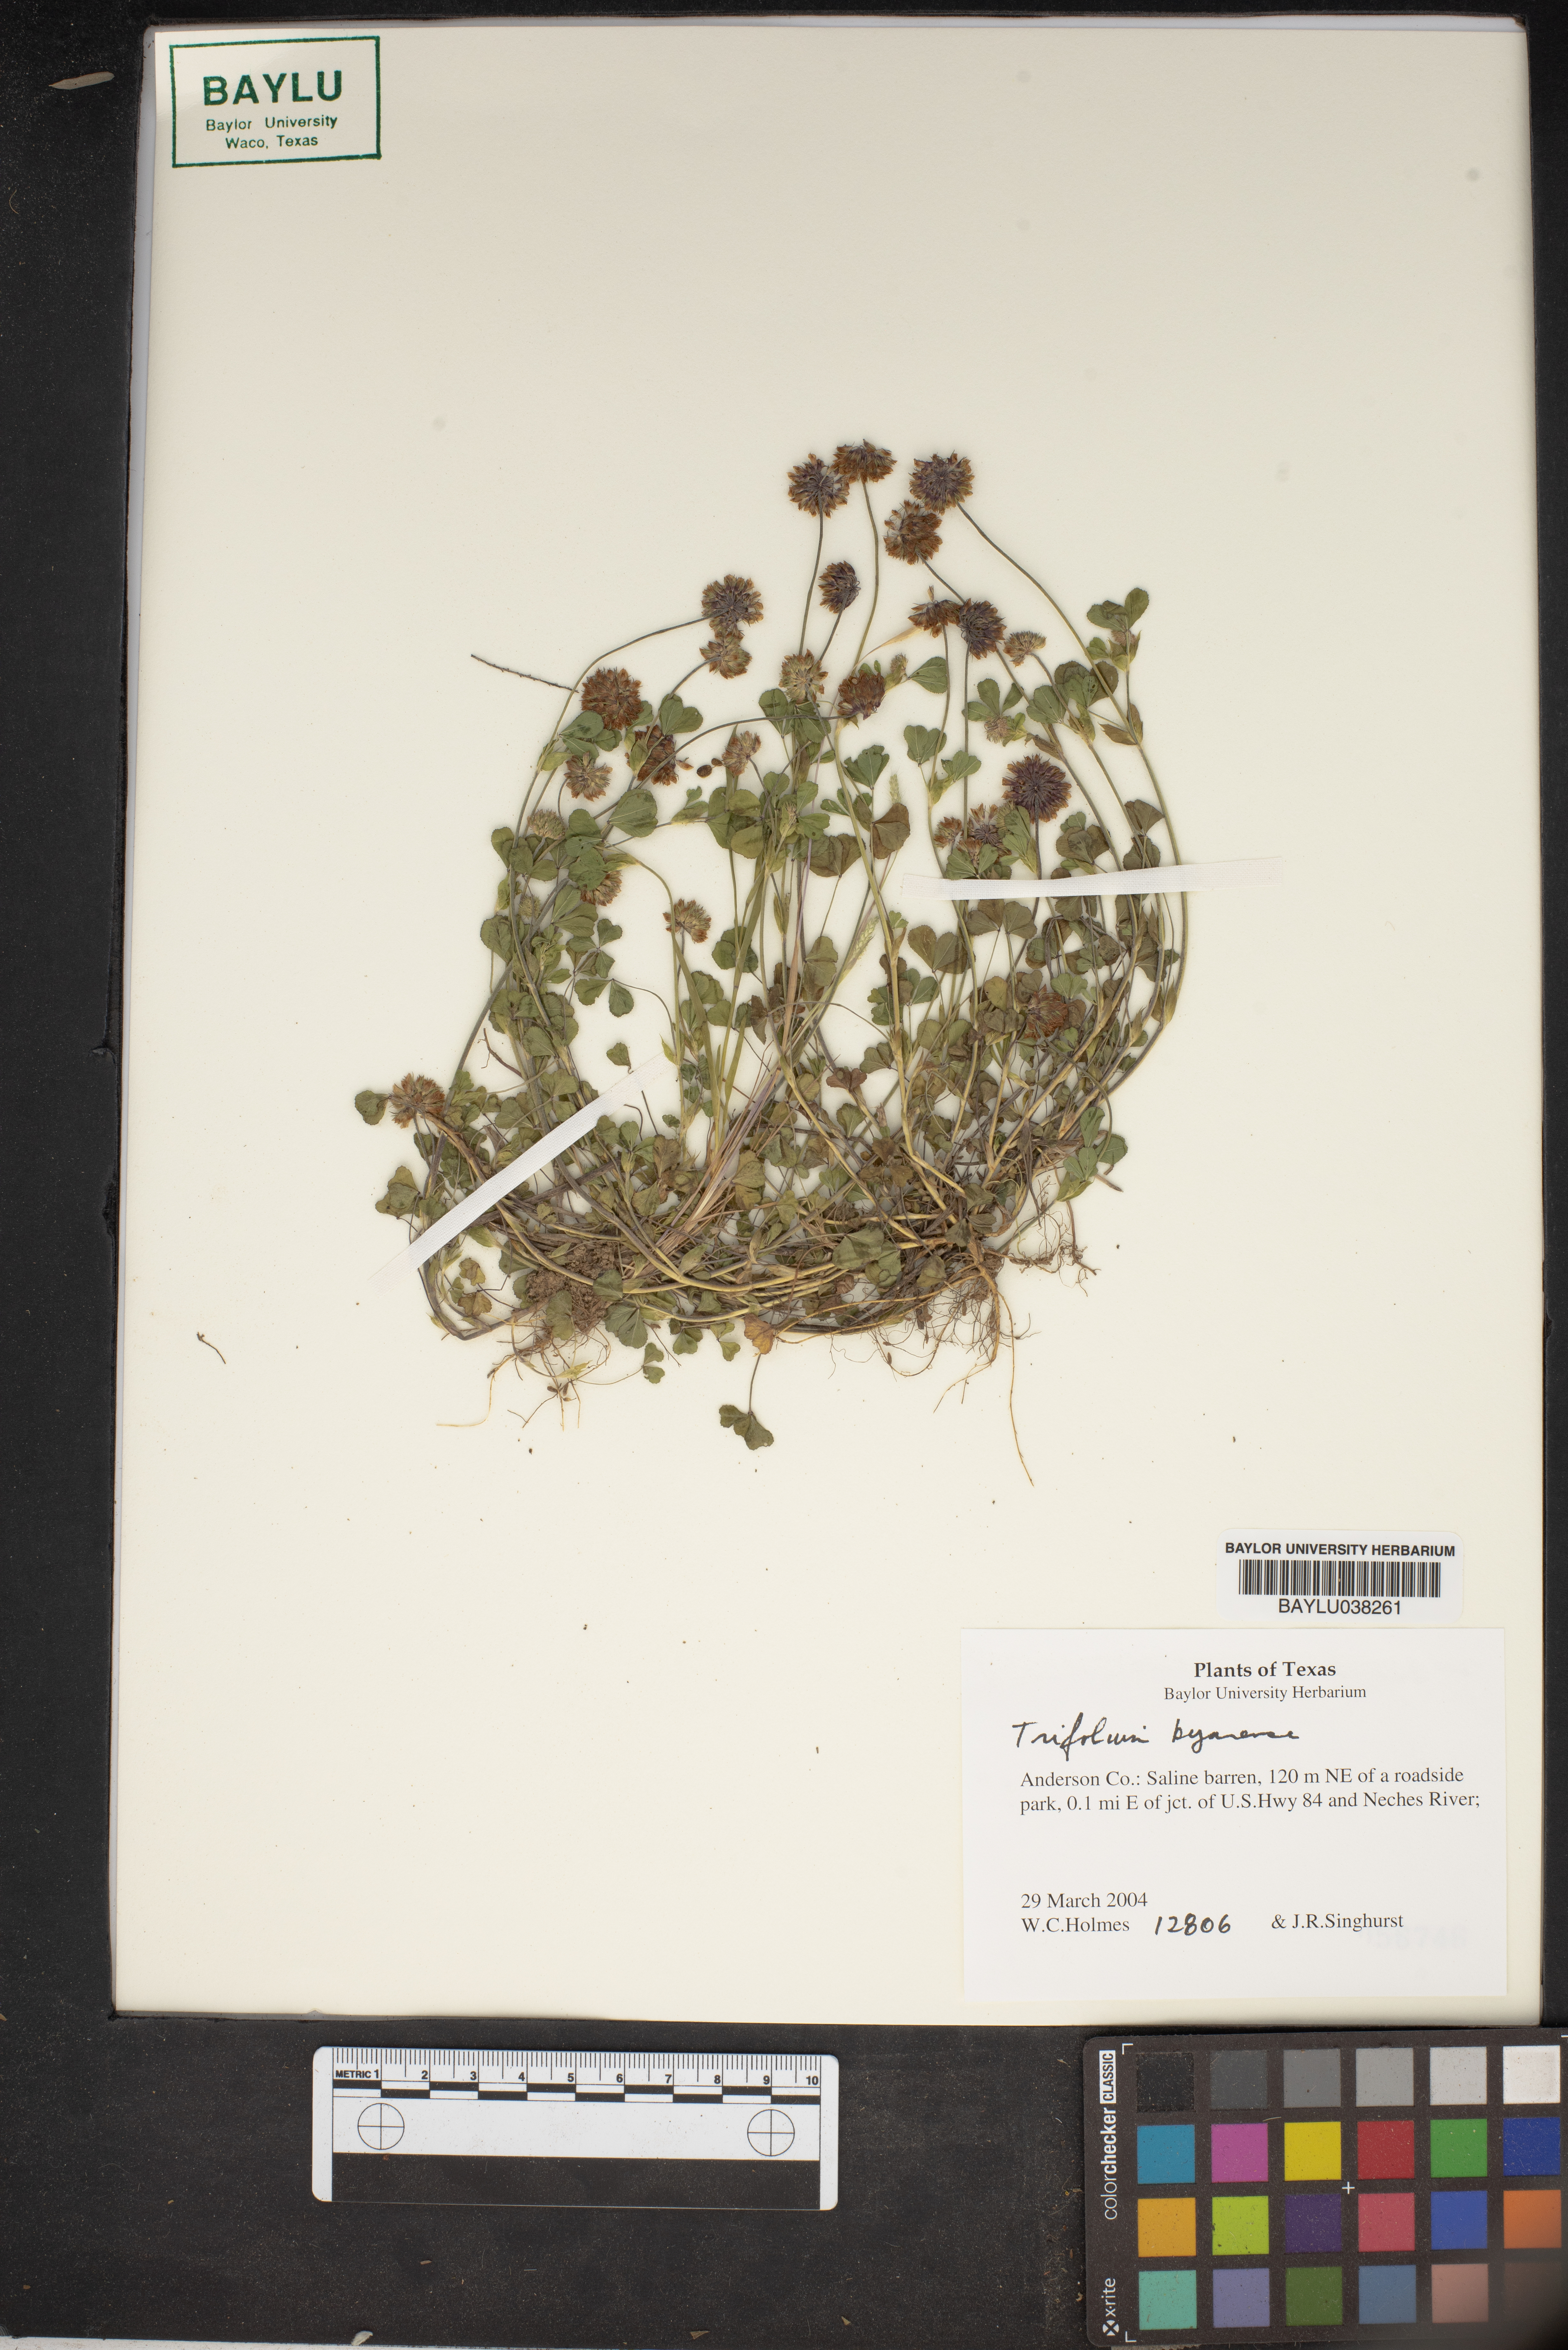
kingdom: Plantae
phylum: Tracheophyta
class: Magnoliopsida
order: Fabales
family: Fabaceae
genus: Trifolium
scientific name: Trifolium
